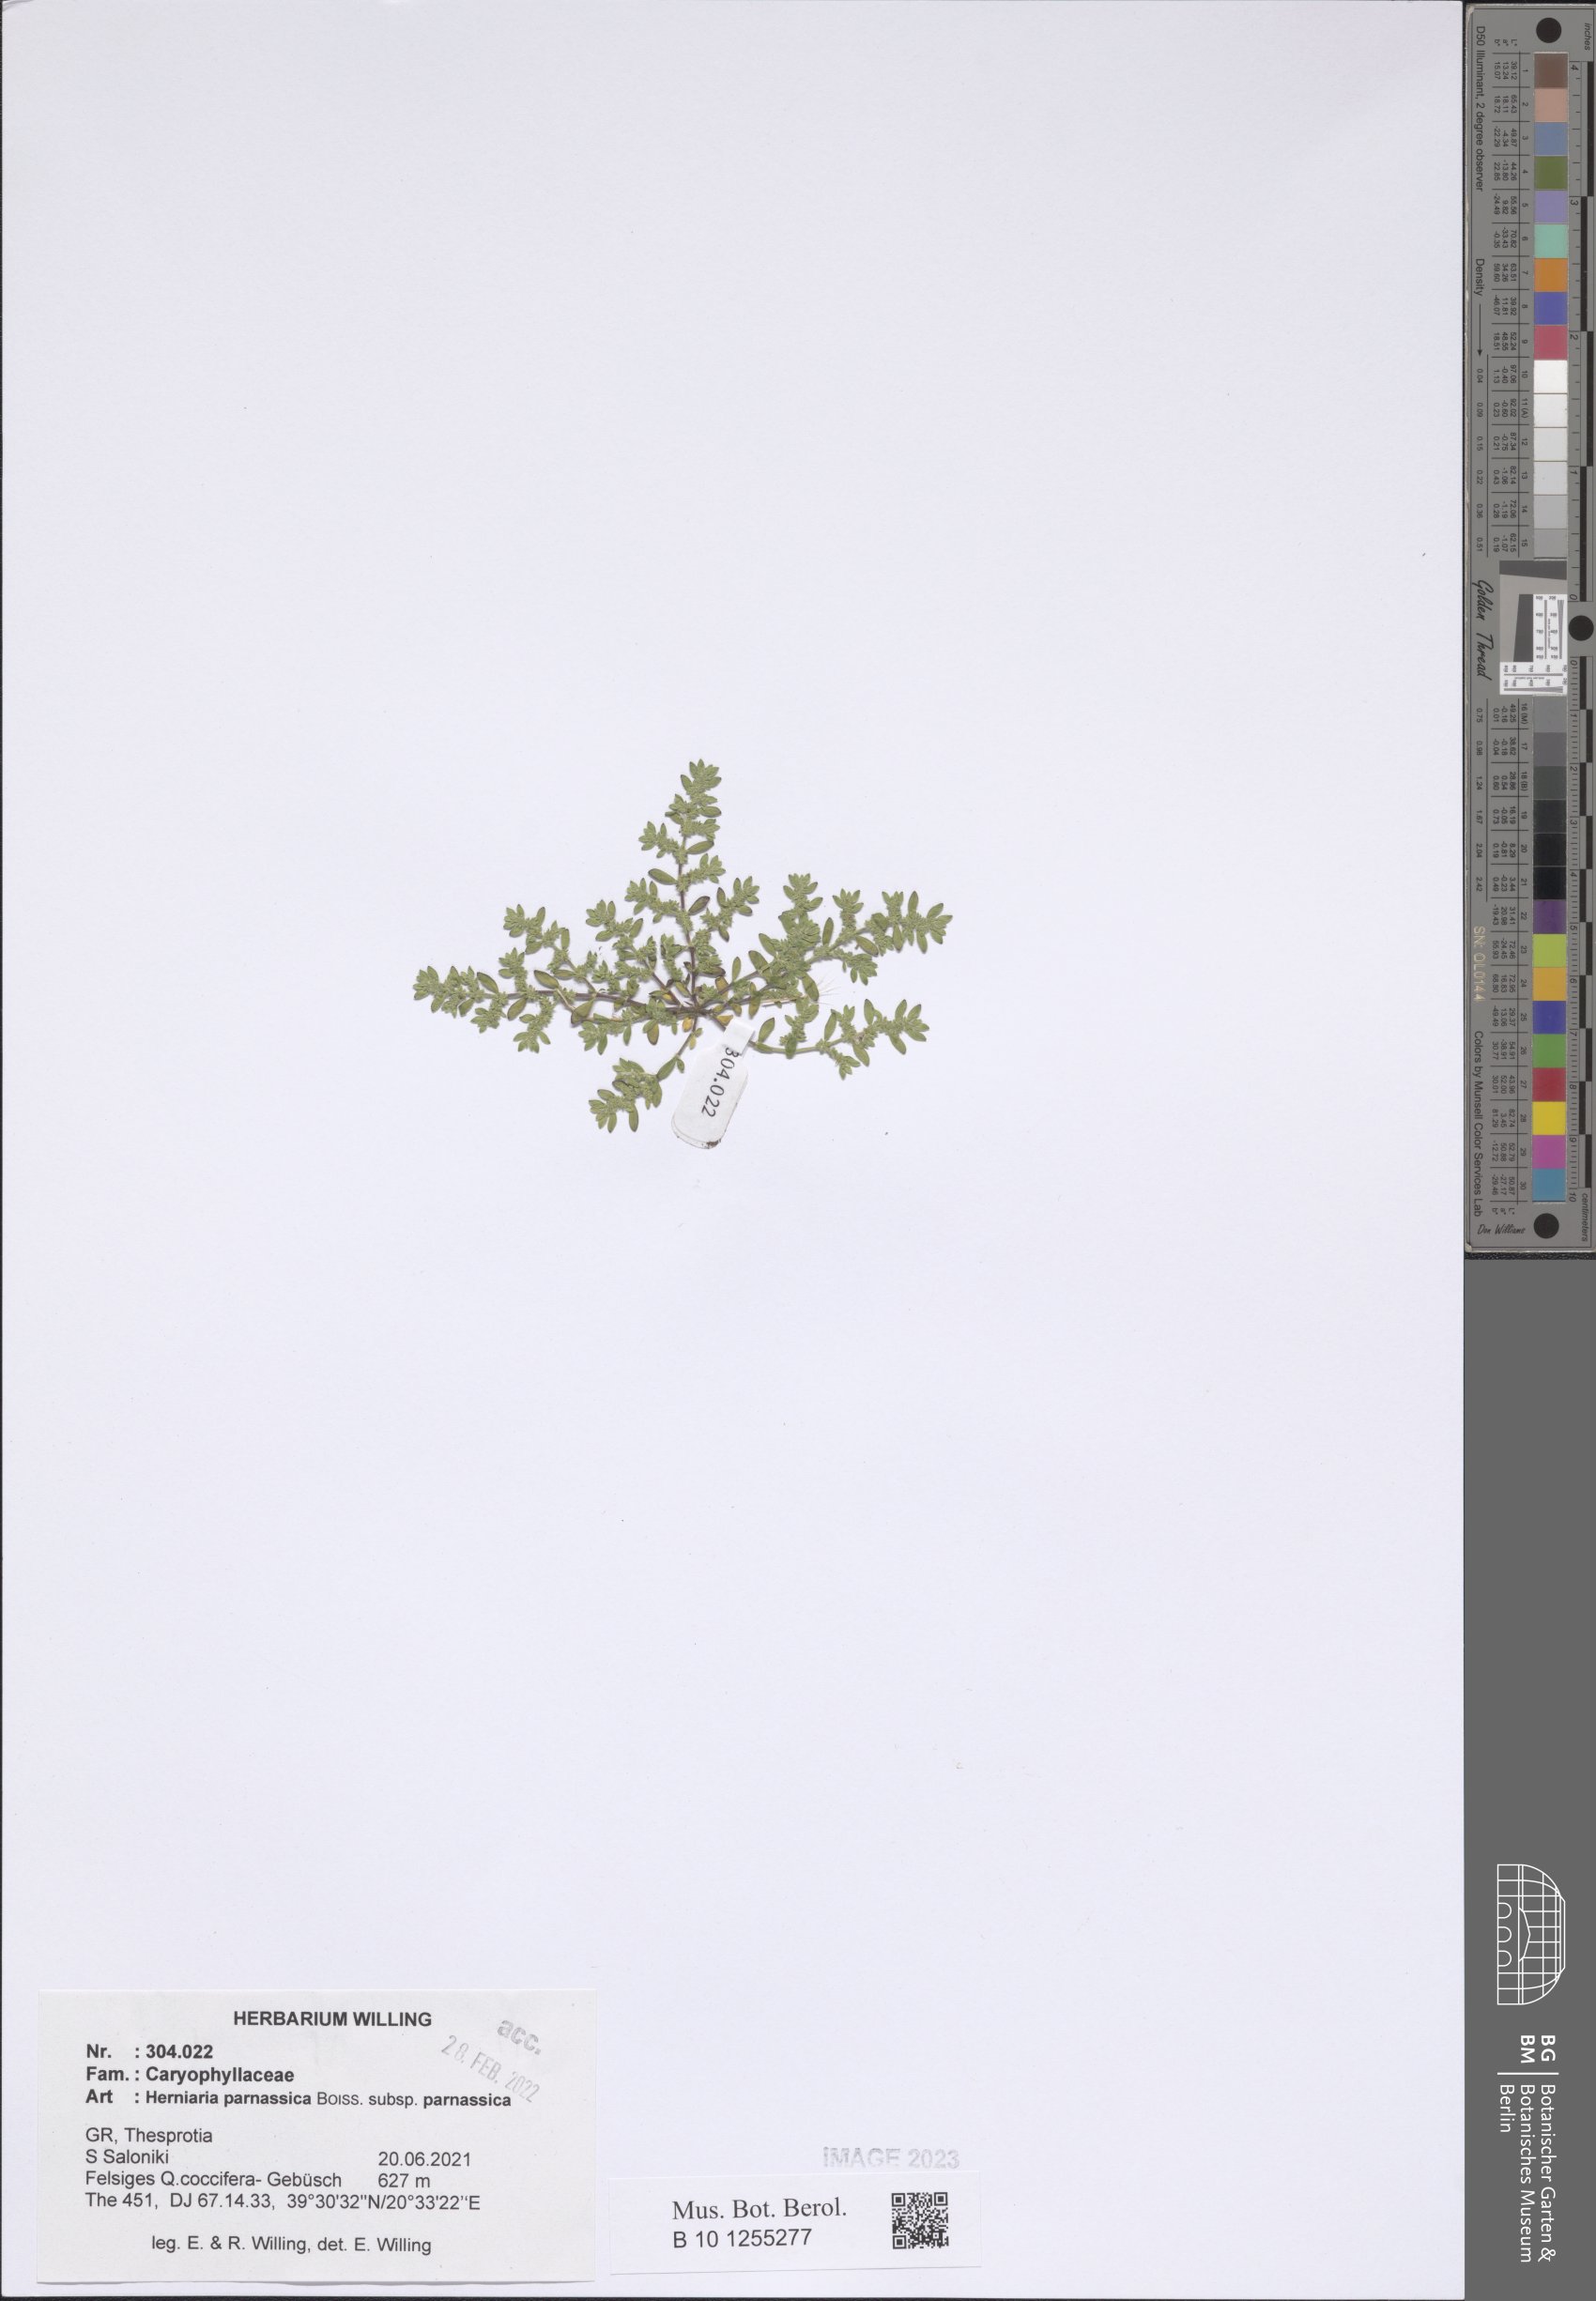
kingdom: Plantae
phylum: Tracheophyta
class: Magnoliopsida
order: Caryophyllales
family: Caryophyllaceae
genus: Herniaria
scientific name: Herniaria parnassica
